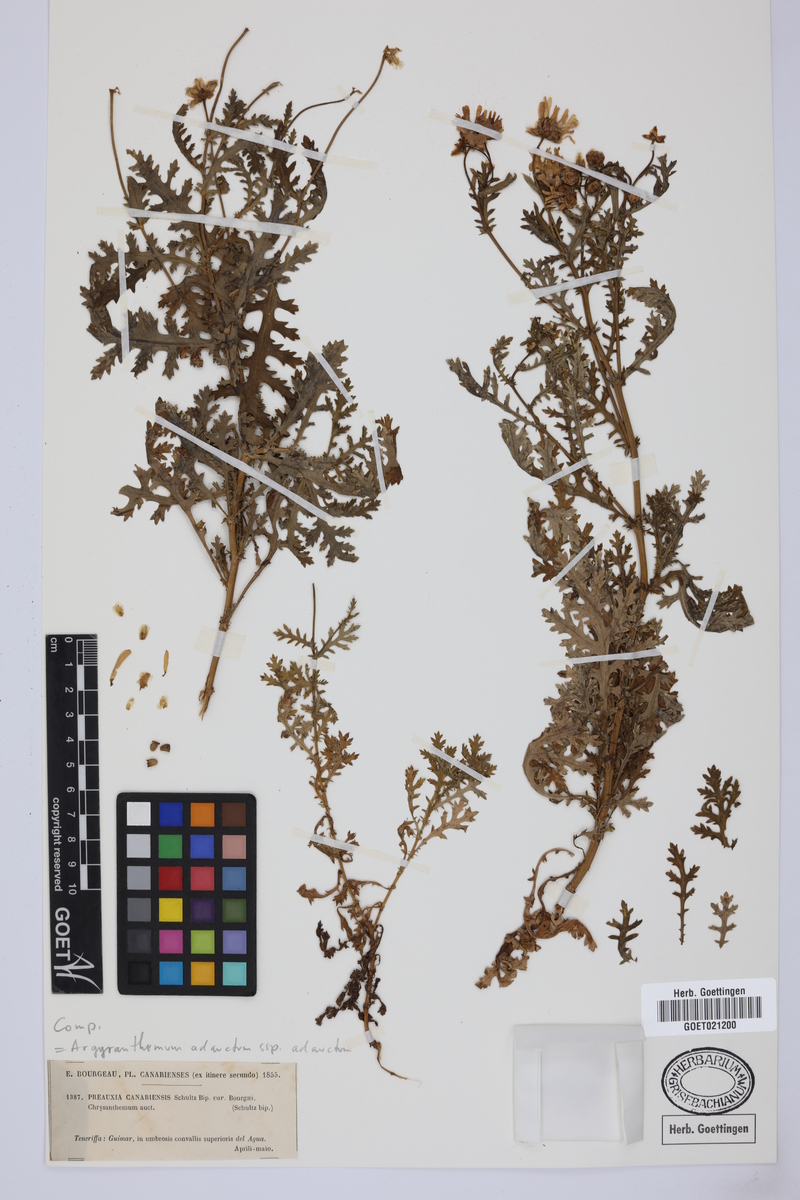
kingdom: Plantae
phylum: Tracheophyta
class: Magnoliopsida
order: Asterales
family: Asteraceae
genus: Argyranthemum
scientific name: Argyranthemum adauctum
